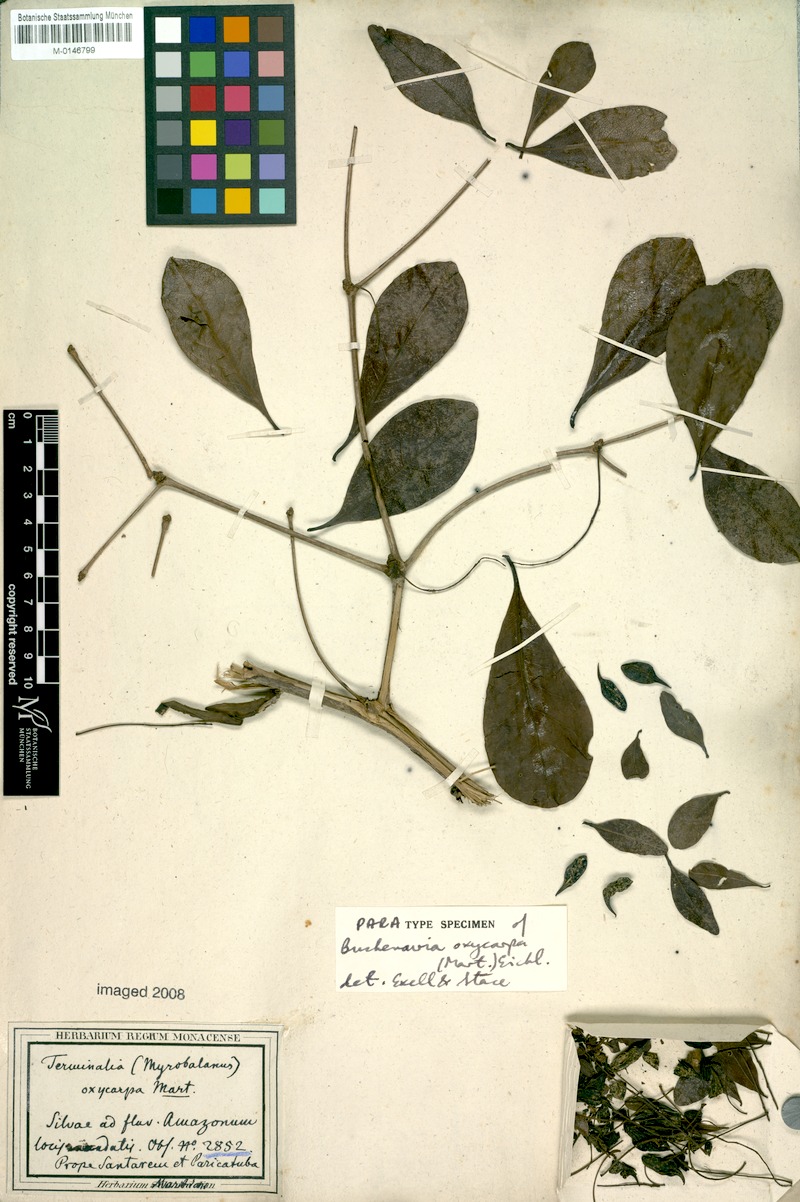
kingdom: Plantae
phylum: Tracheophyta
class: Magnoliopsida
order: Myrtales
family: Combretaceae
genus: Terminalia
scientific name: Terminalia oxycarpa
